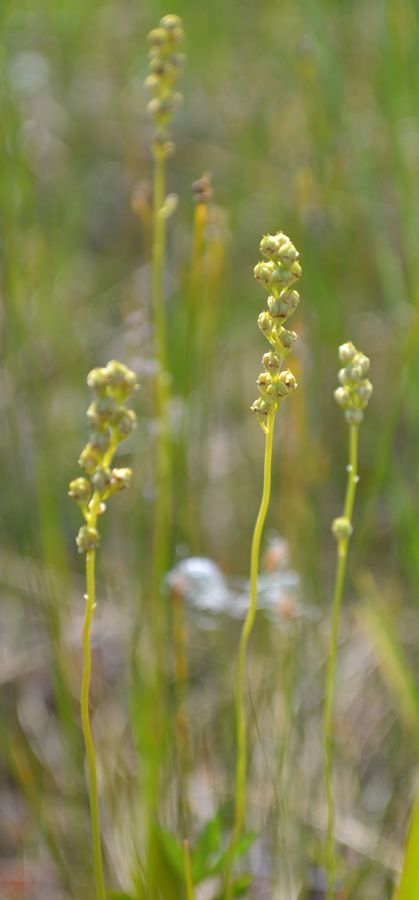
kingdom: Plantae
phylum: Tracheophyta
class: Liliopsida
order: Alismatales
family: Tofieldiaceae
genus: Tofieldia
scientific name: Tofieldia pusilla
